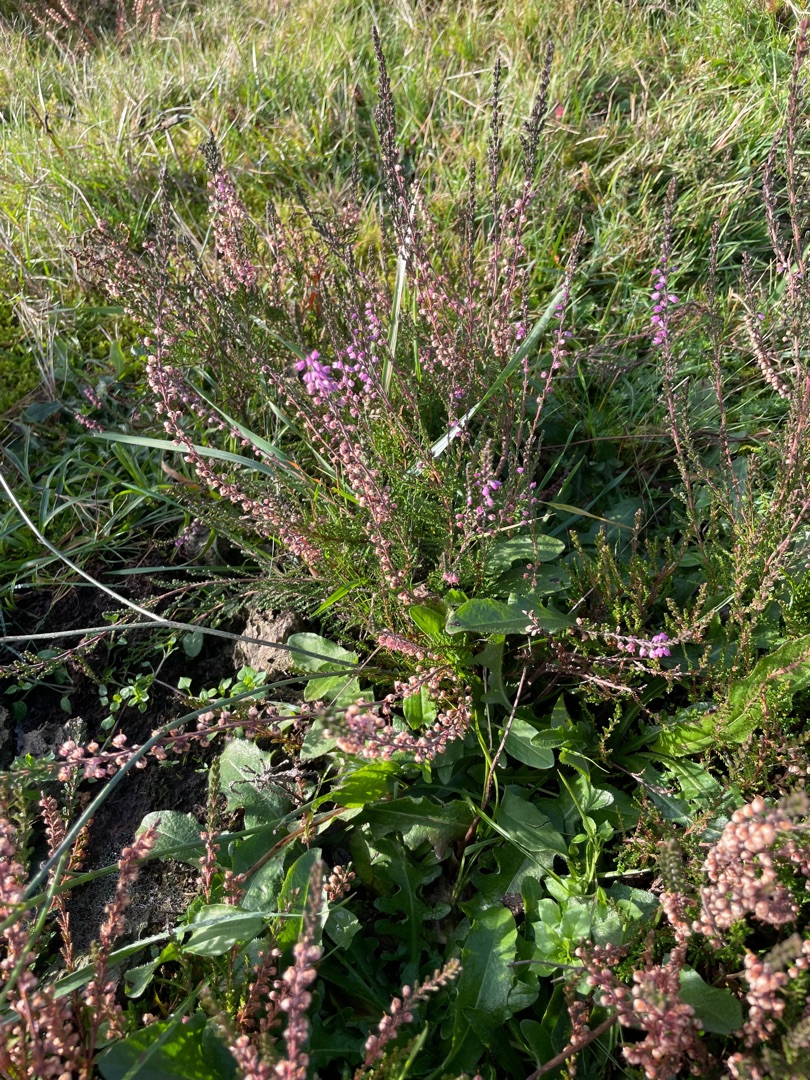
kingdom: Plantae
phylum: Tracheophyta
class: Magnoliopsida
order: Ericales
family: Ericaceae
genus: Calluna
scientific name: Calluna vulgaris
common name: Hedelyng
